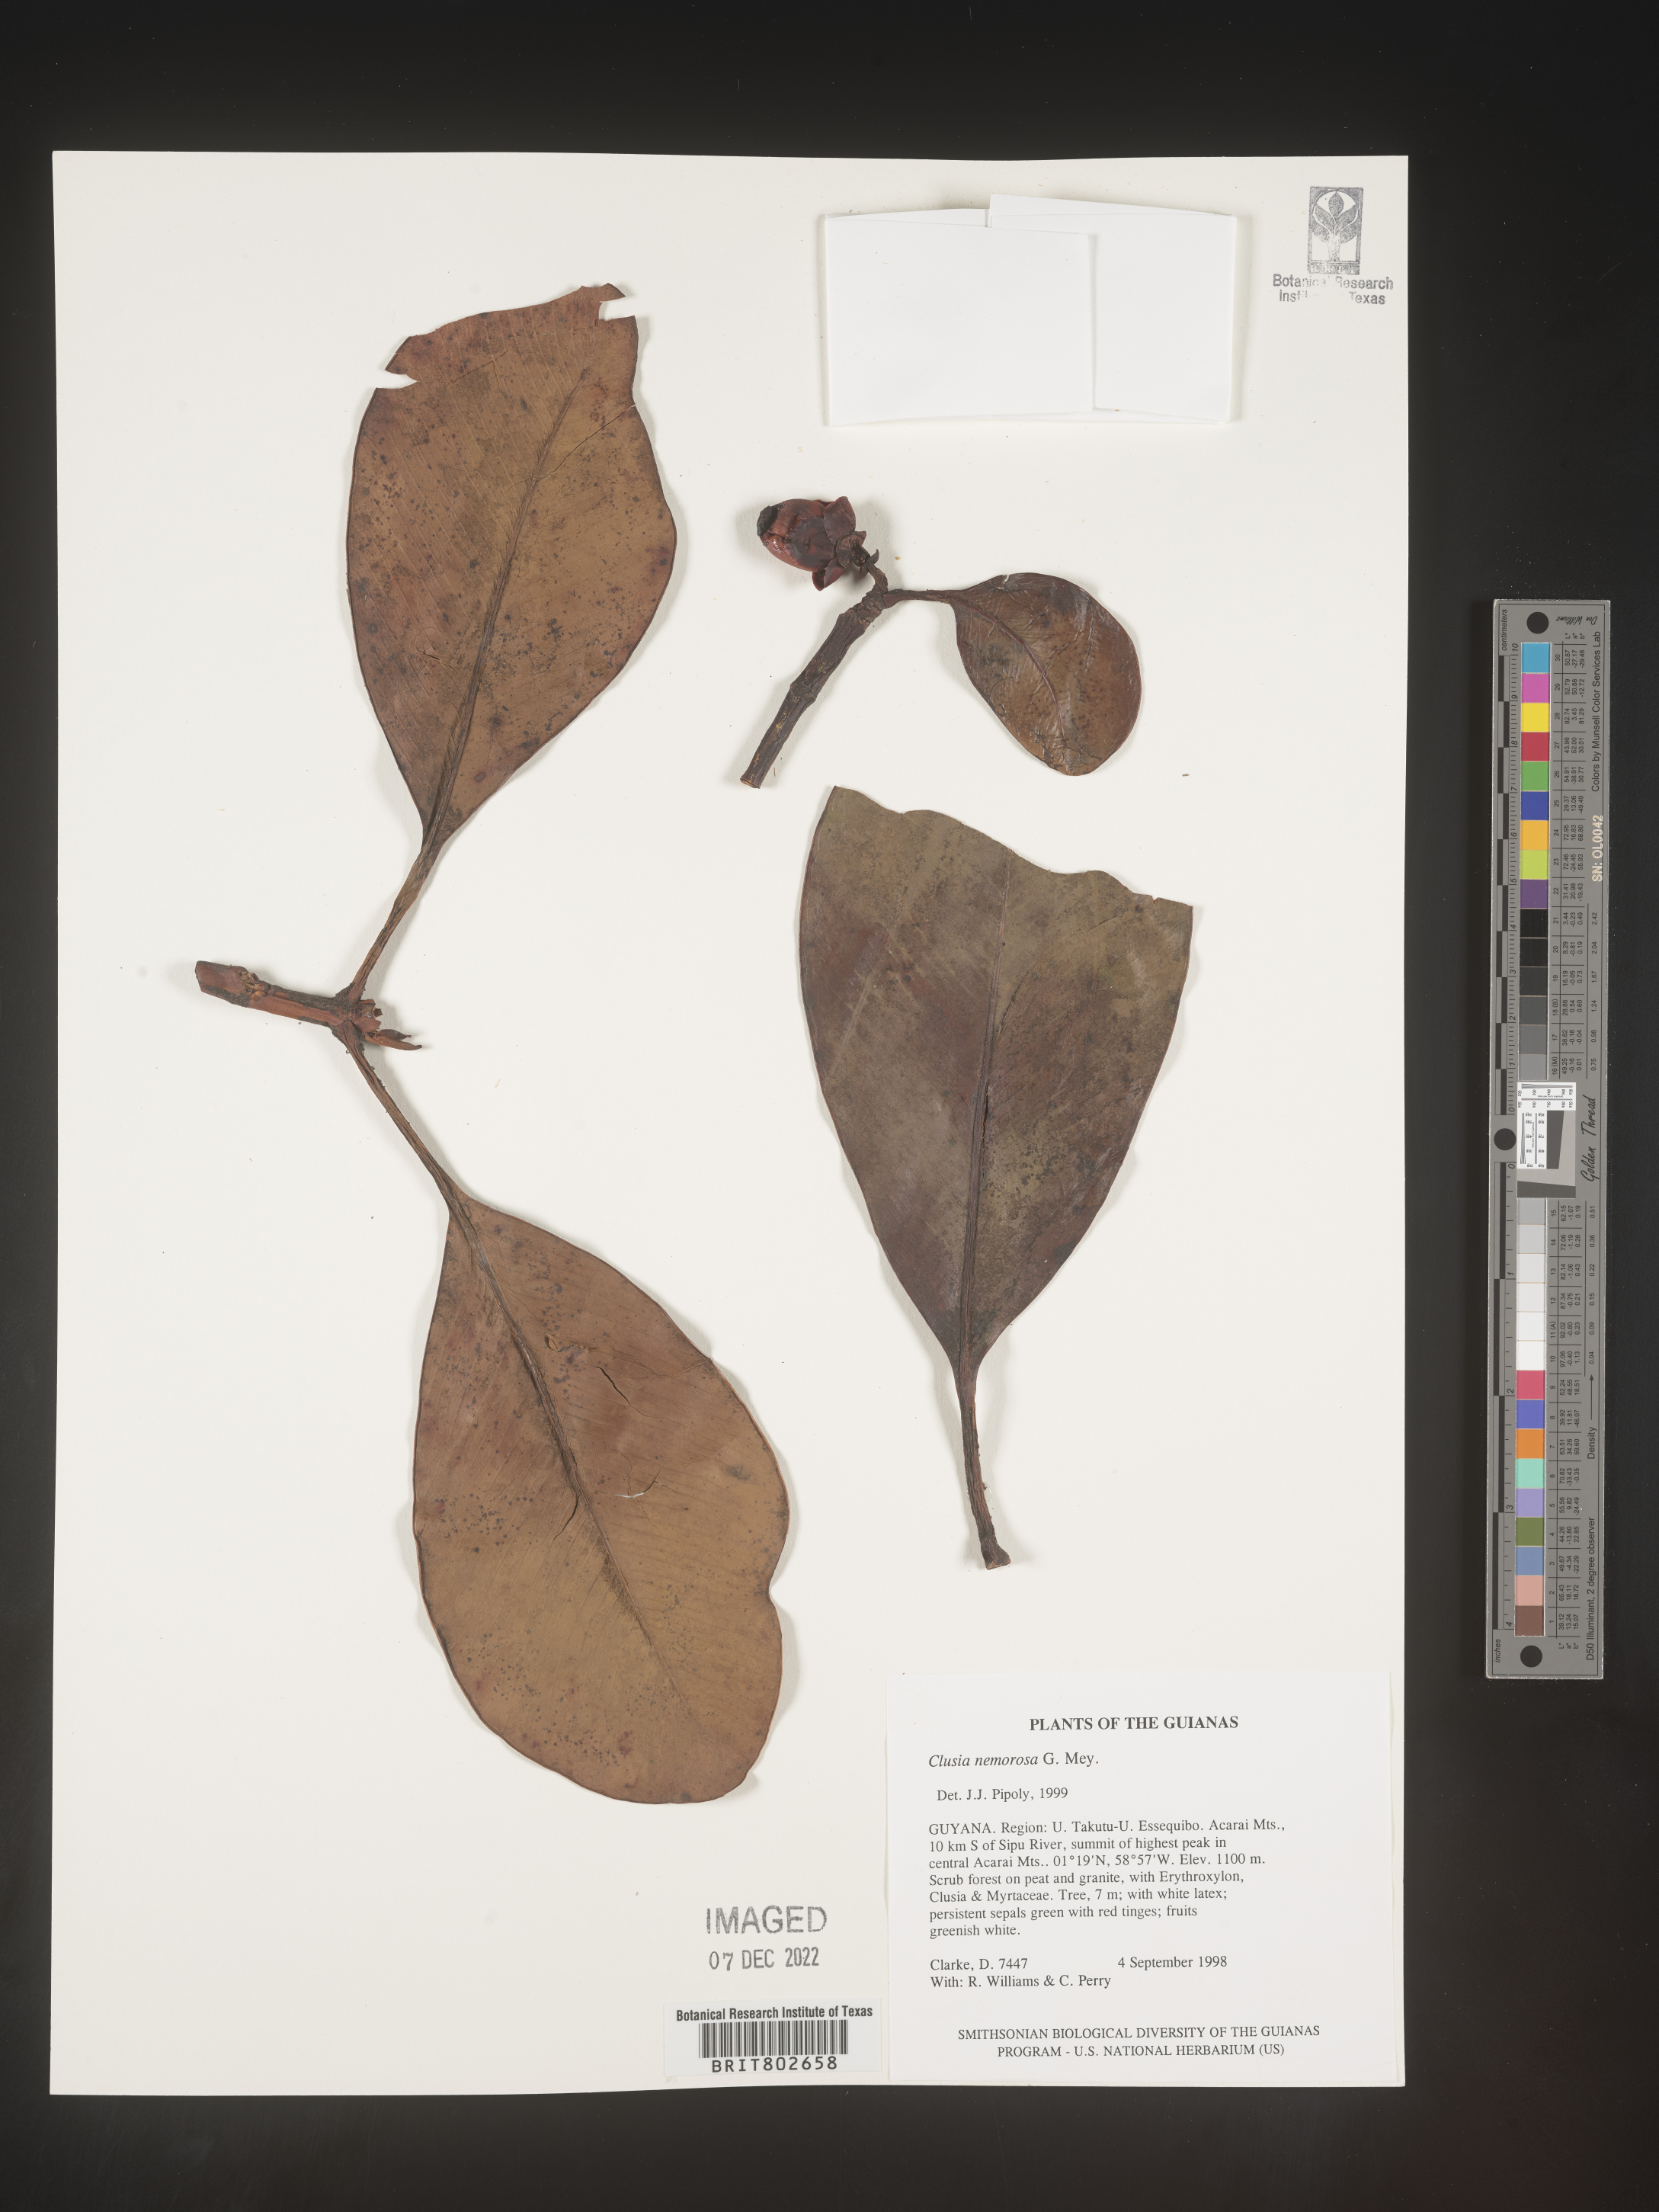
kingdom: Plantae
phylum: Tracheophyta
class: Magnoliopsida
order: Malpighiales
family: Clusiaceae
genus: Clusia
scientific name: Clusia nemorosa
